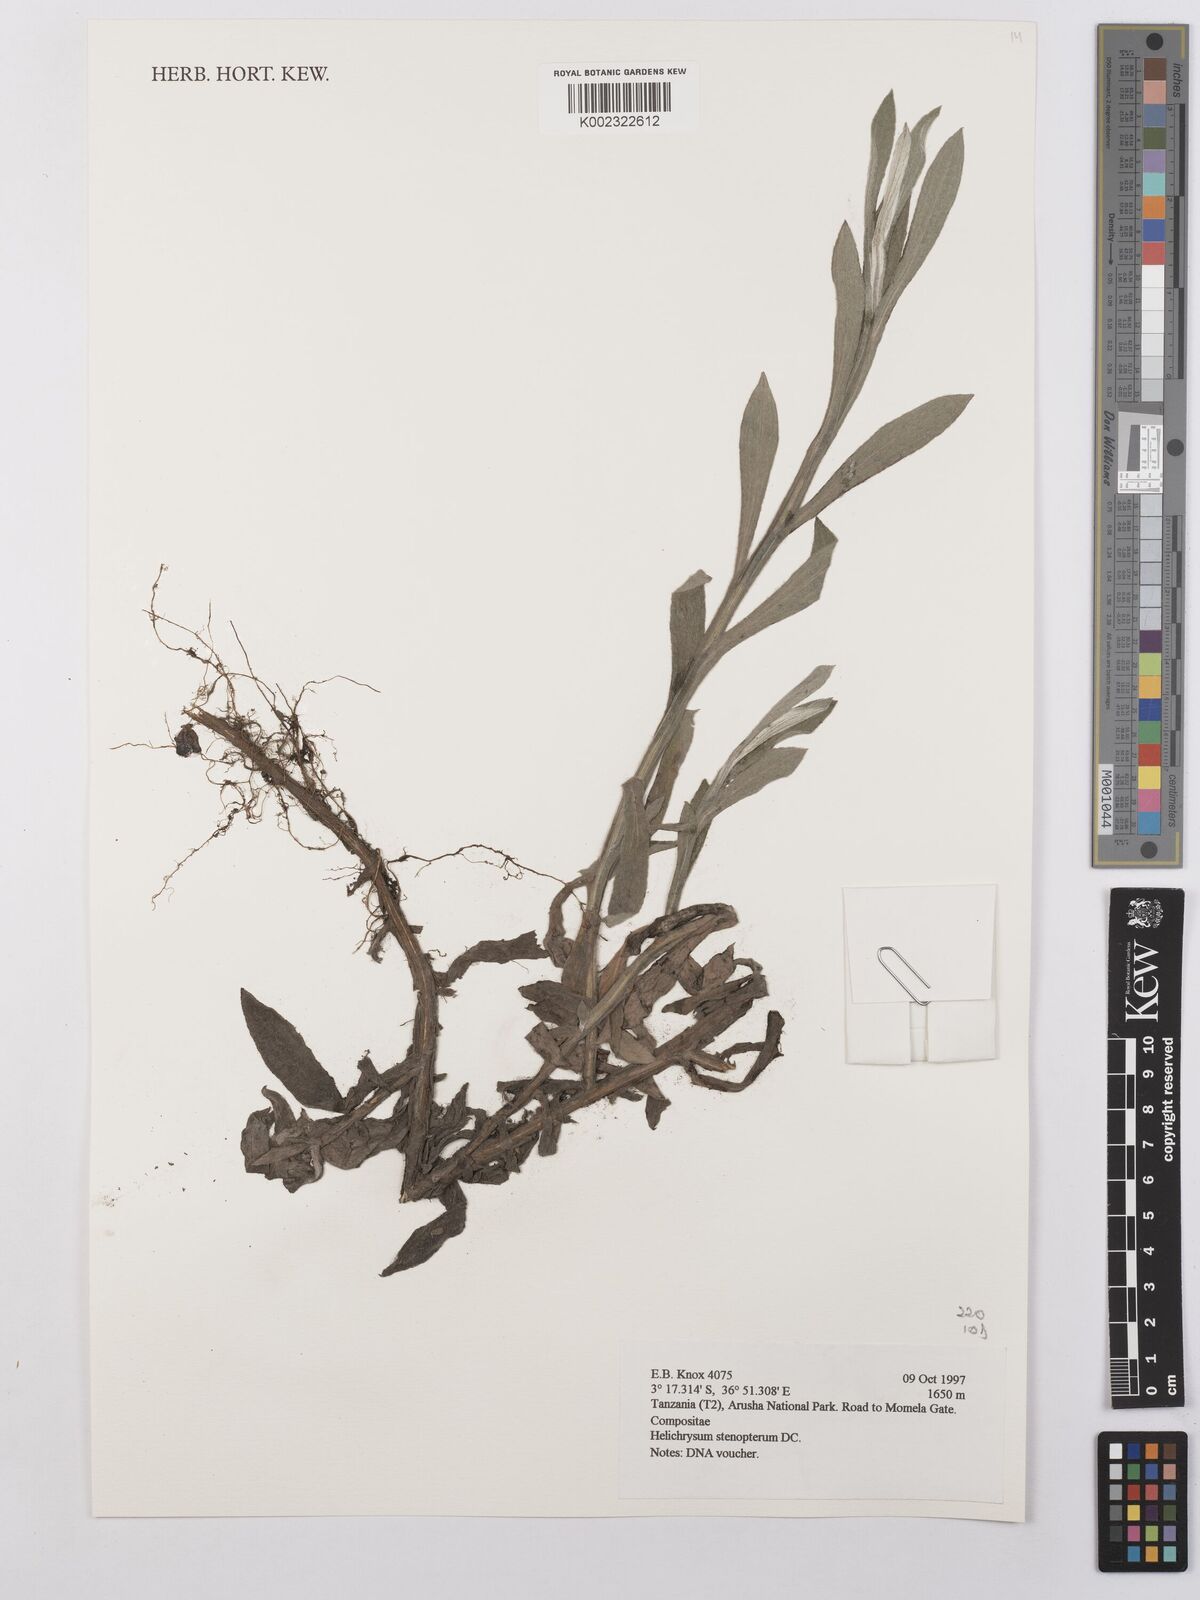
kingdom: Plantae
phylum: Tracheophyta
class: Magnoliopsida
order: Asterales
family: Asteraceae
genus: Helichrysum
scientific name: Helichrysum stenopterum
